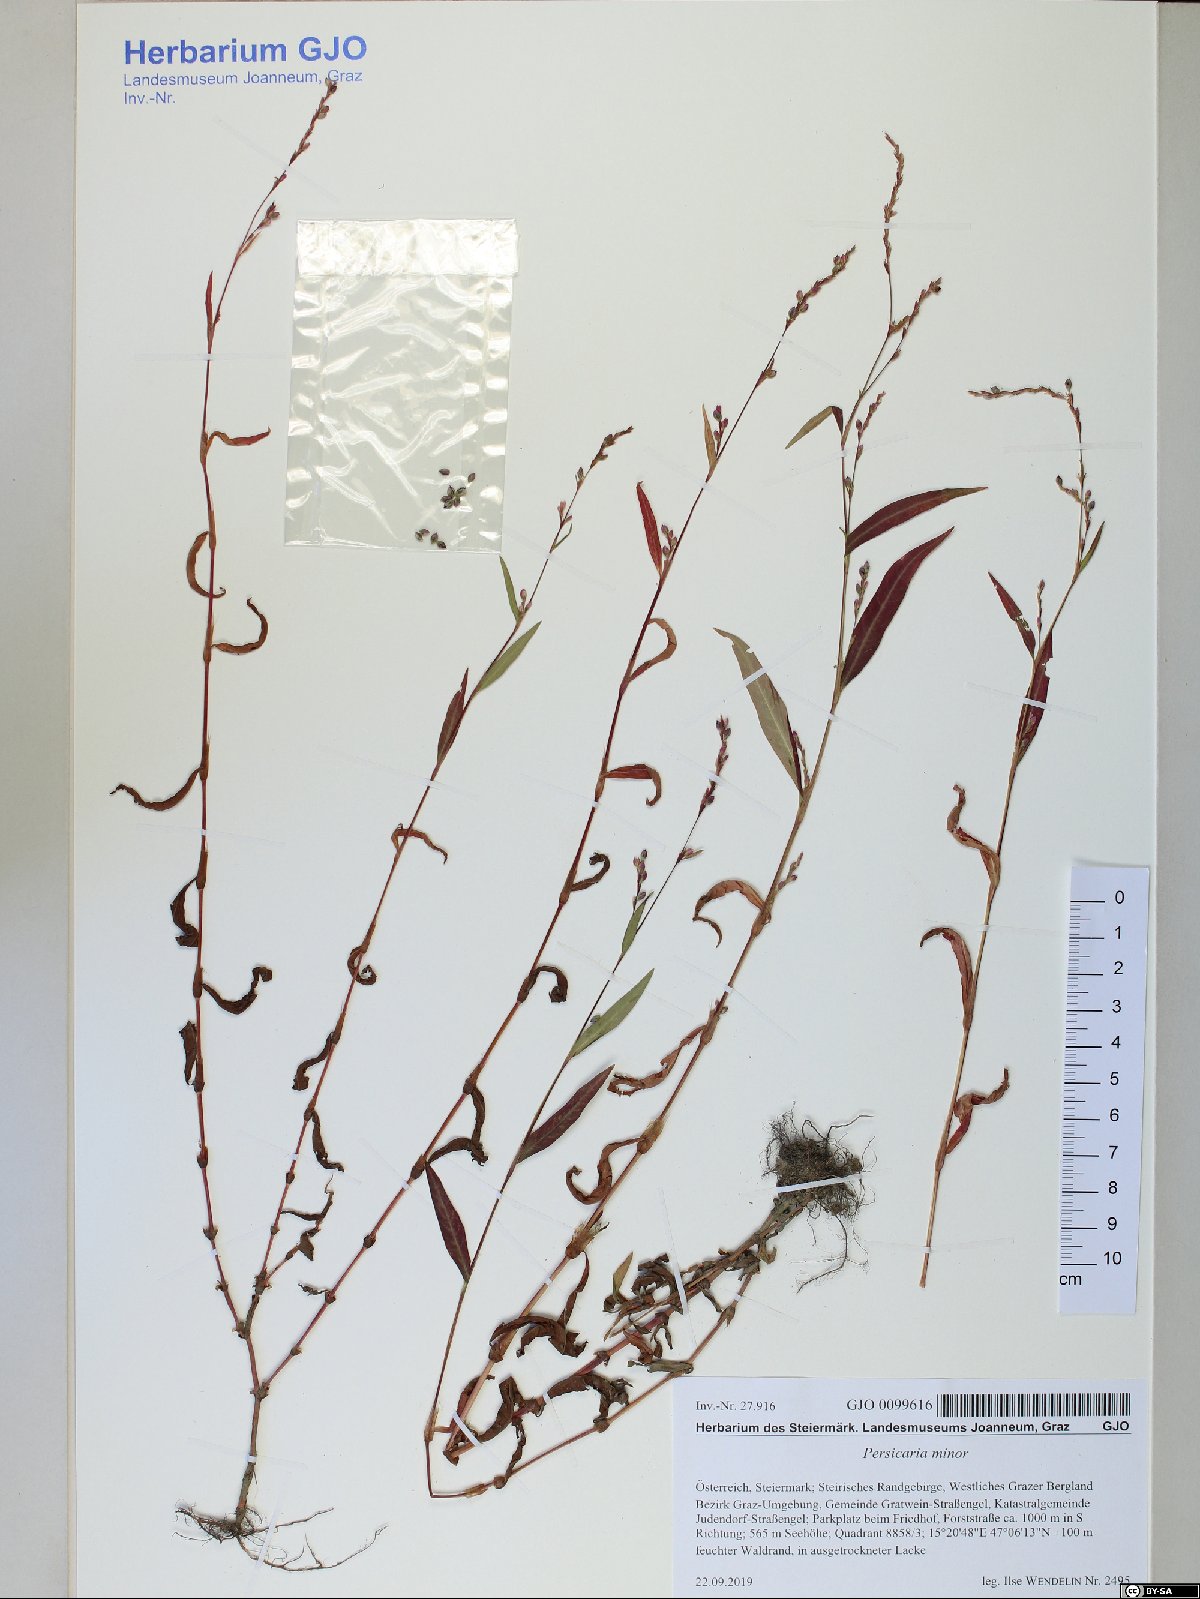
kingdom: Plantae
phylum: Tracheophyta
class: Magnoliopsida
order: Caryophyllales
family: Polygonaceae
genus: Persicaria
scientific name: Persicaria minor
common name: Small water-pepper
